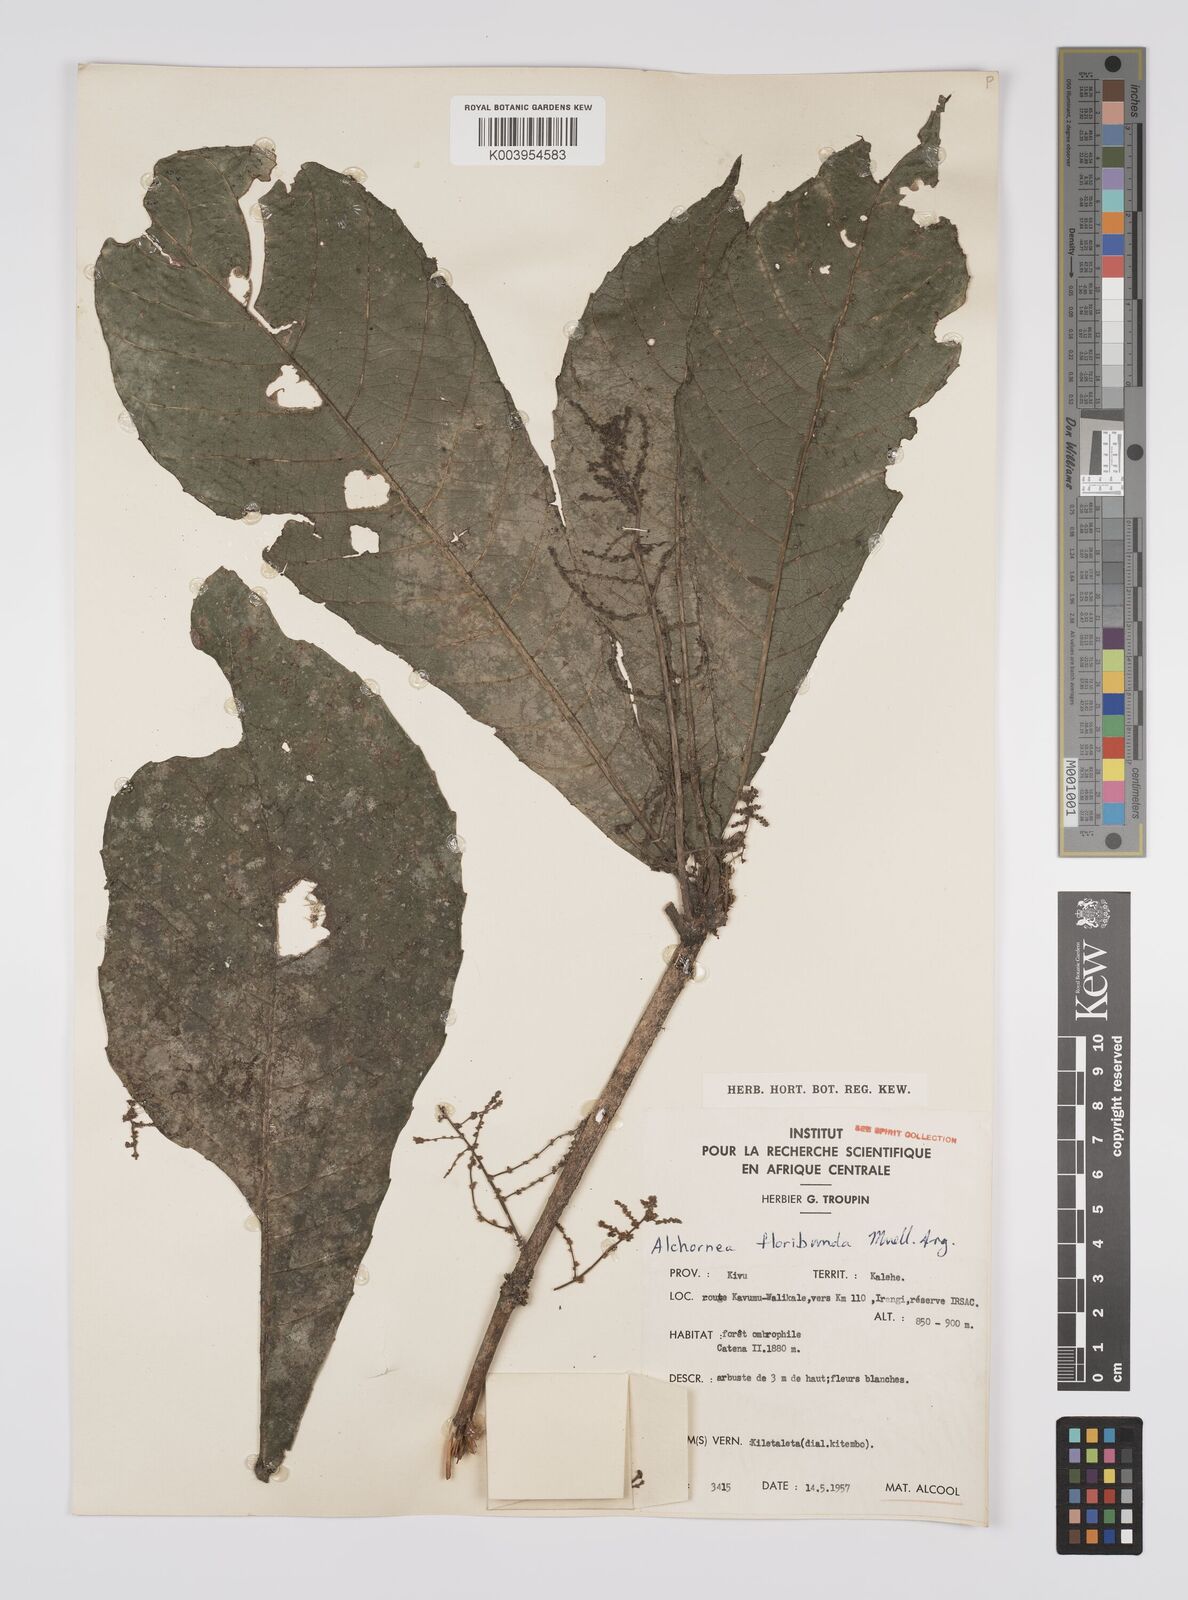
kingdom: Plantae
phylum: Tracheophyta
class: Magnoliopsida
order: Malpighiales
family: Euphorbiaceae
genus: Alchornea
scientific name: Alchornea floribunda
